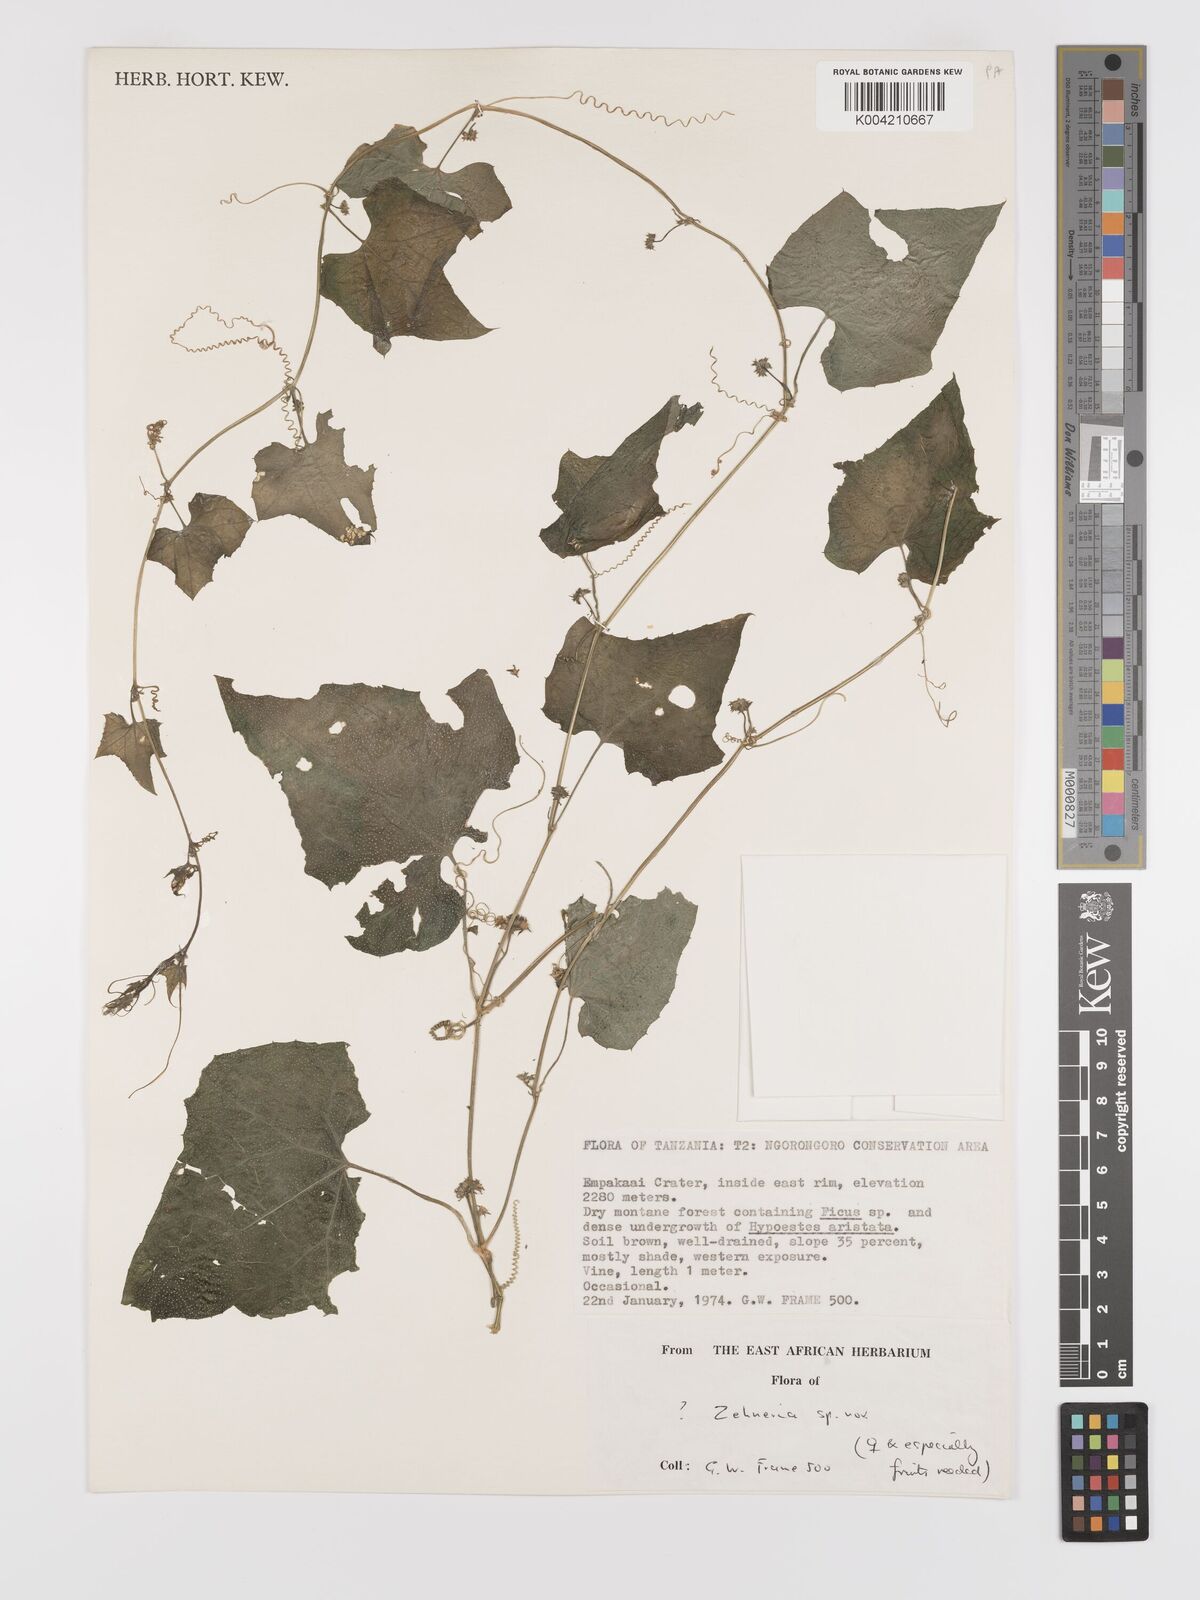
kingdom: Plantae
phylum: Tracheophyta
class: Magnoliopsida
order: Cucurbitales
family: Cucurbitaceae
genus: Zehneria
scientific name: Zehneria
